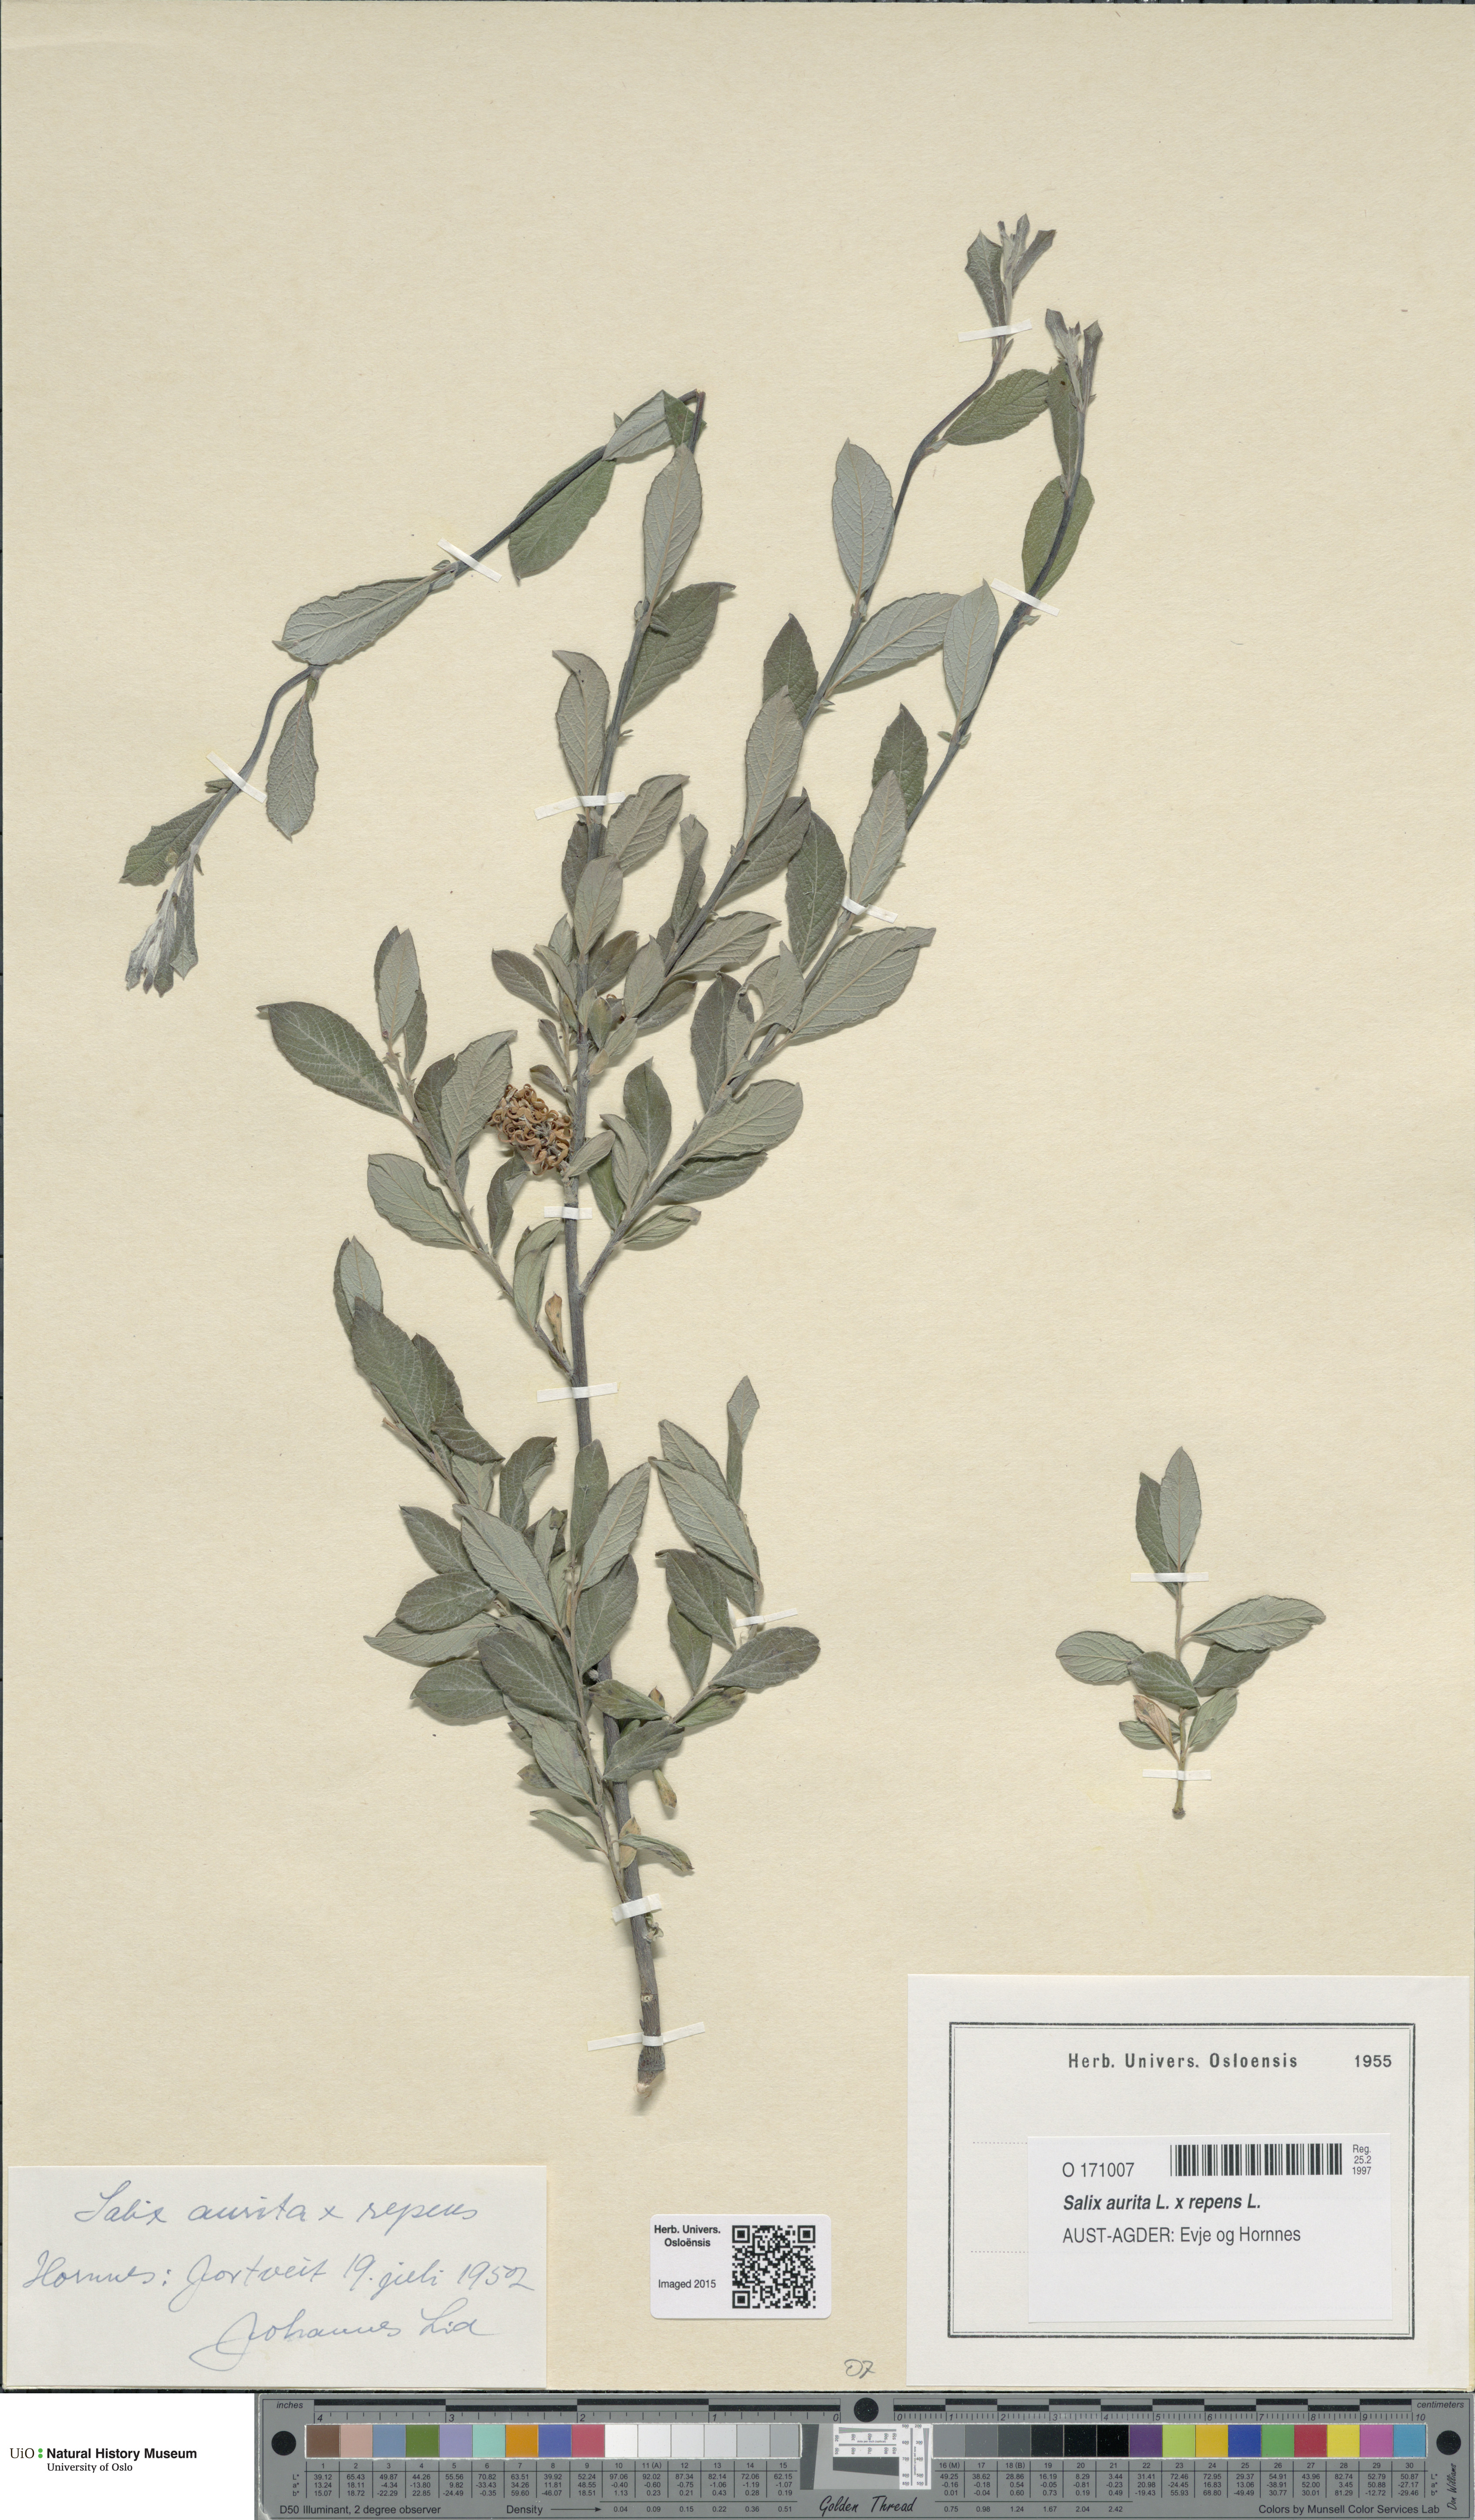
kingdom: Plantae
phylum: Tracheophyta
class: Magnoliopsida
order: Malpighiales
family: Salicaceae
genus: Salix
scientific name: Salix
